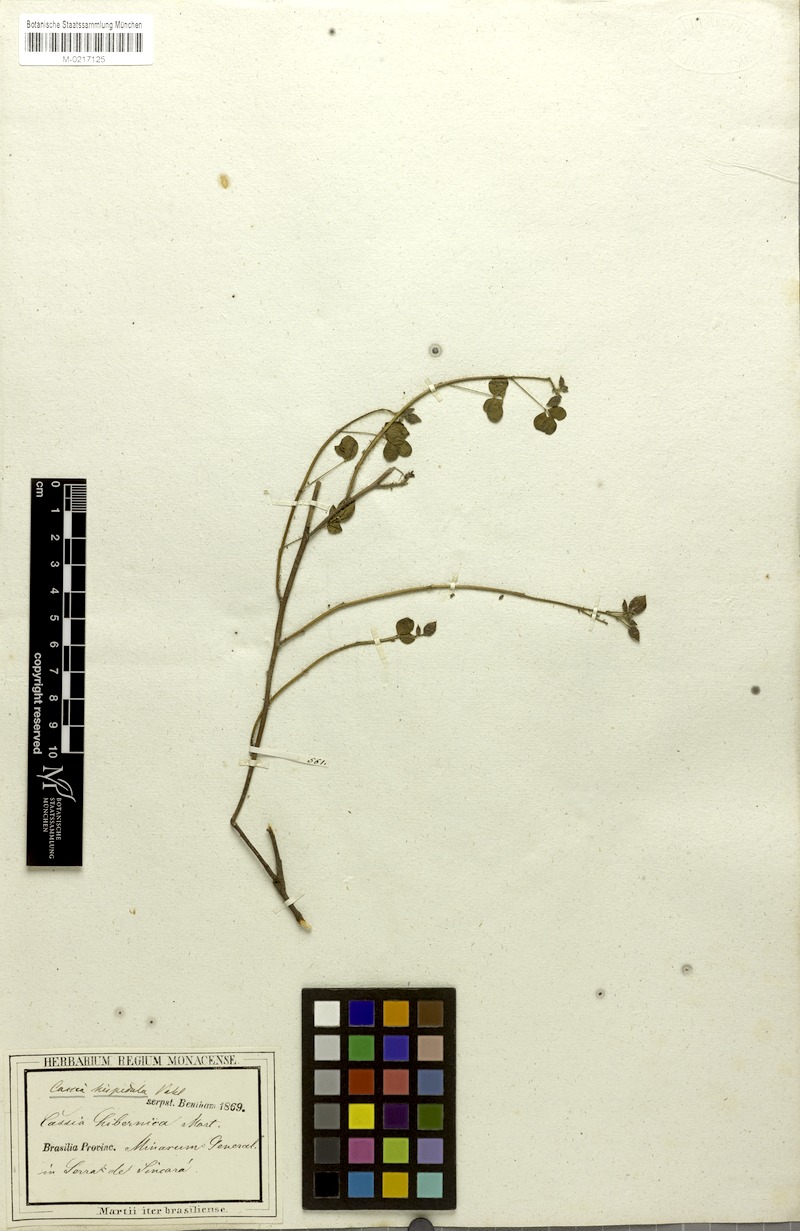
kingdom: Plantae
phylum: Tracheophyta
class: Magnoliopsida
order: Fabales
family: Fabaceae
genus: Chamaecrista
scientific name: Chamaecrista hispidula
